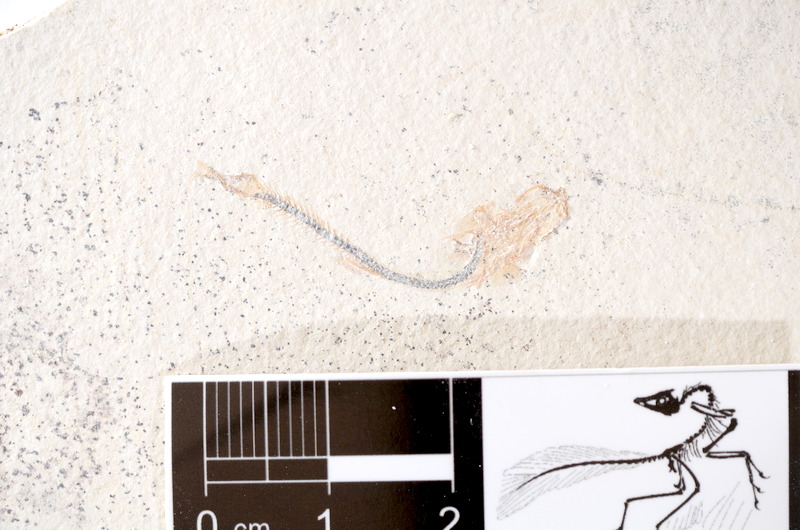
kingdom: Animalia
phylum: Chordata
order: Salmoniformes
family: Orthogonikleithridae
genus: Orthogonikleithrus
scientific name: Orthogonikleithrus hoelli
